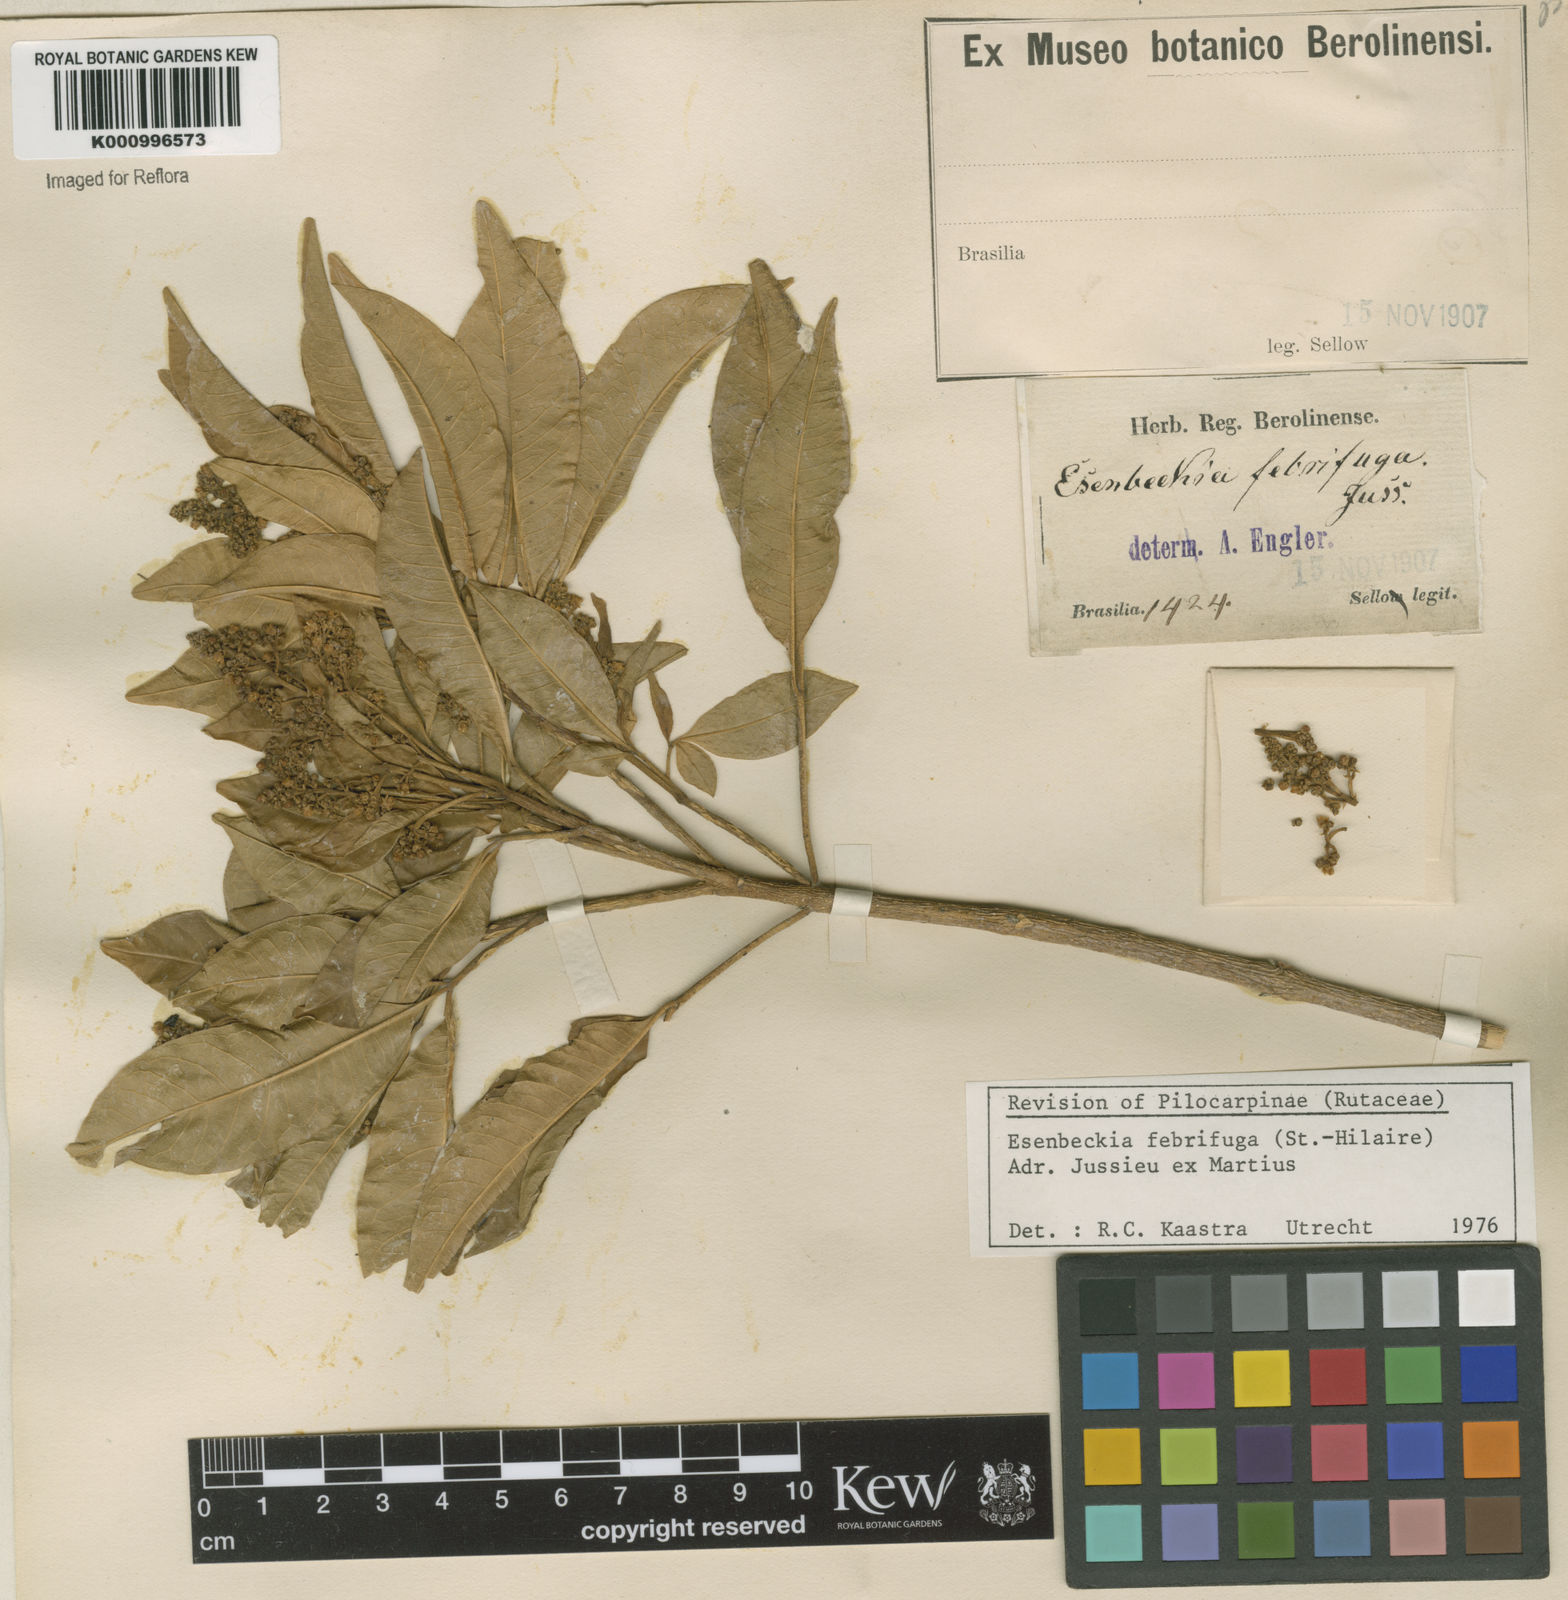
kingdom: Plantae
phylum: Tracheophyta
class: Magnoliopsida
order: Sapindales
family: Rutaceae
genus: Esenbeckia
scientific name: Esenbeckia febrifuga
